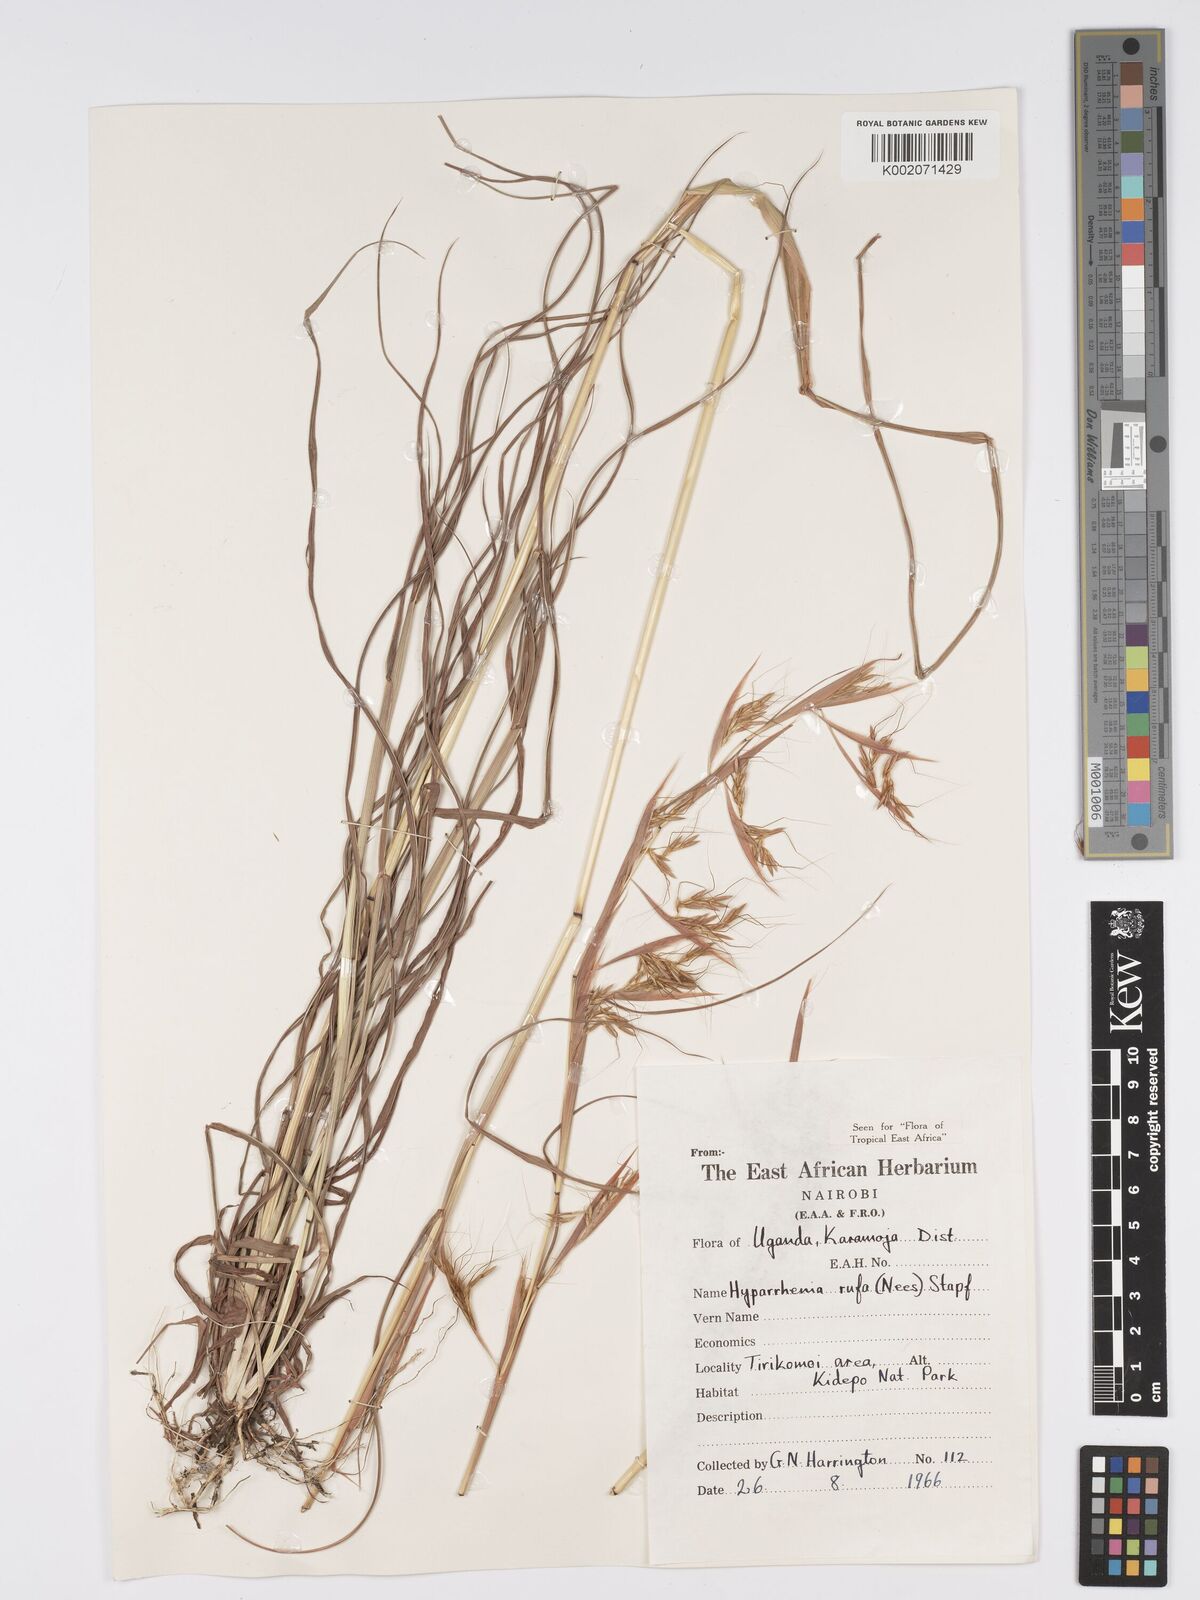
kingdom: Plantae
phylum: Tracheophyta
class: Liliopsida
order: Poales
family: Poaceae
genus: Hyparrhenia
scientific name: Hyparrhenia rufa
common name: Jaraguagrass
